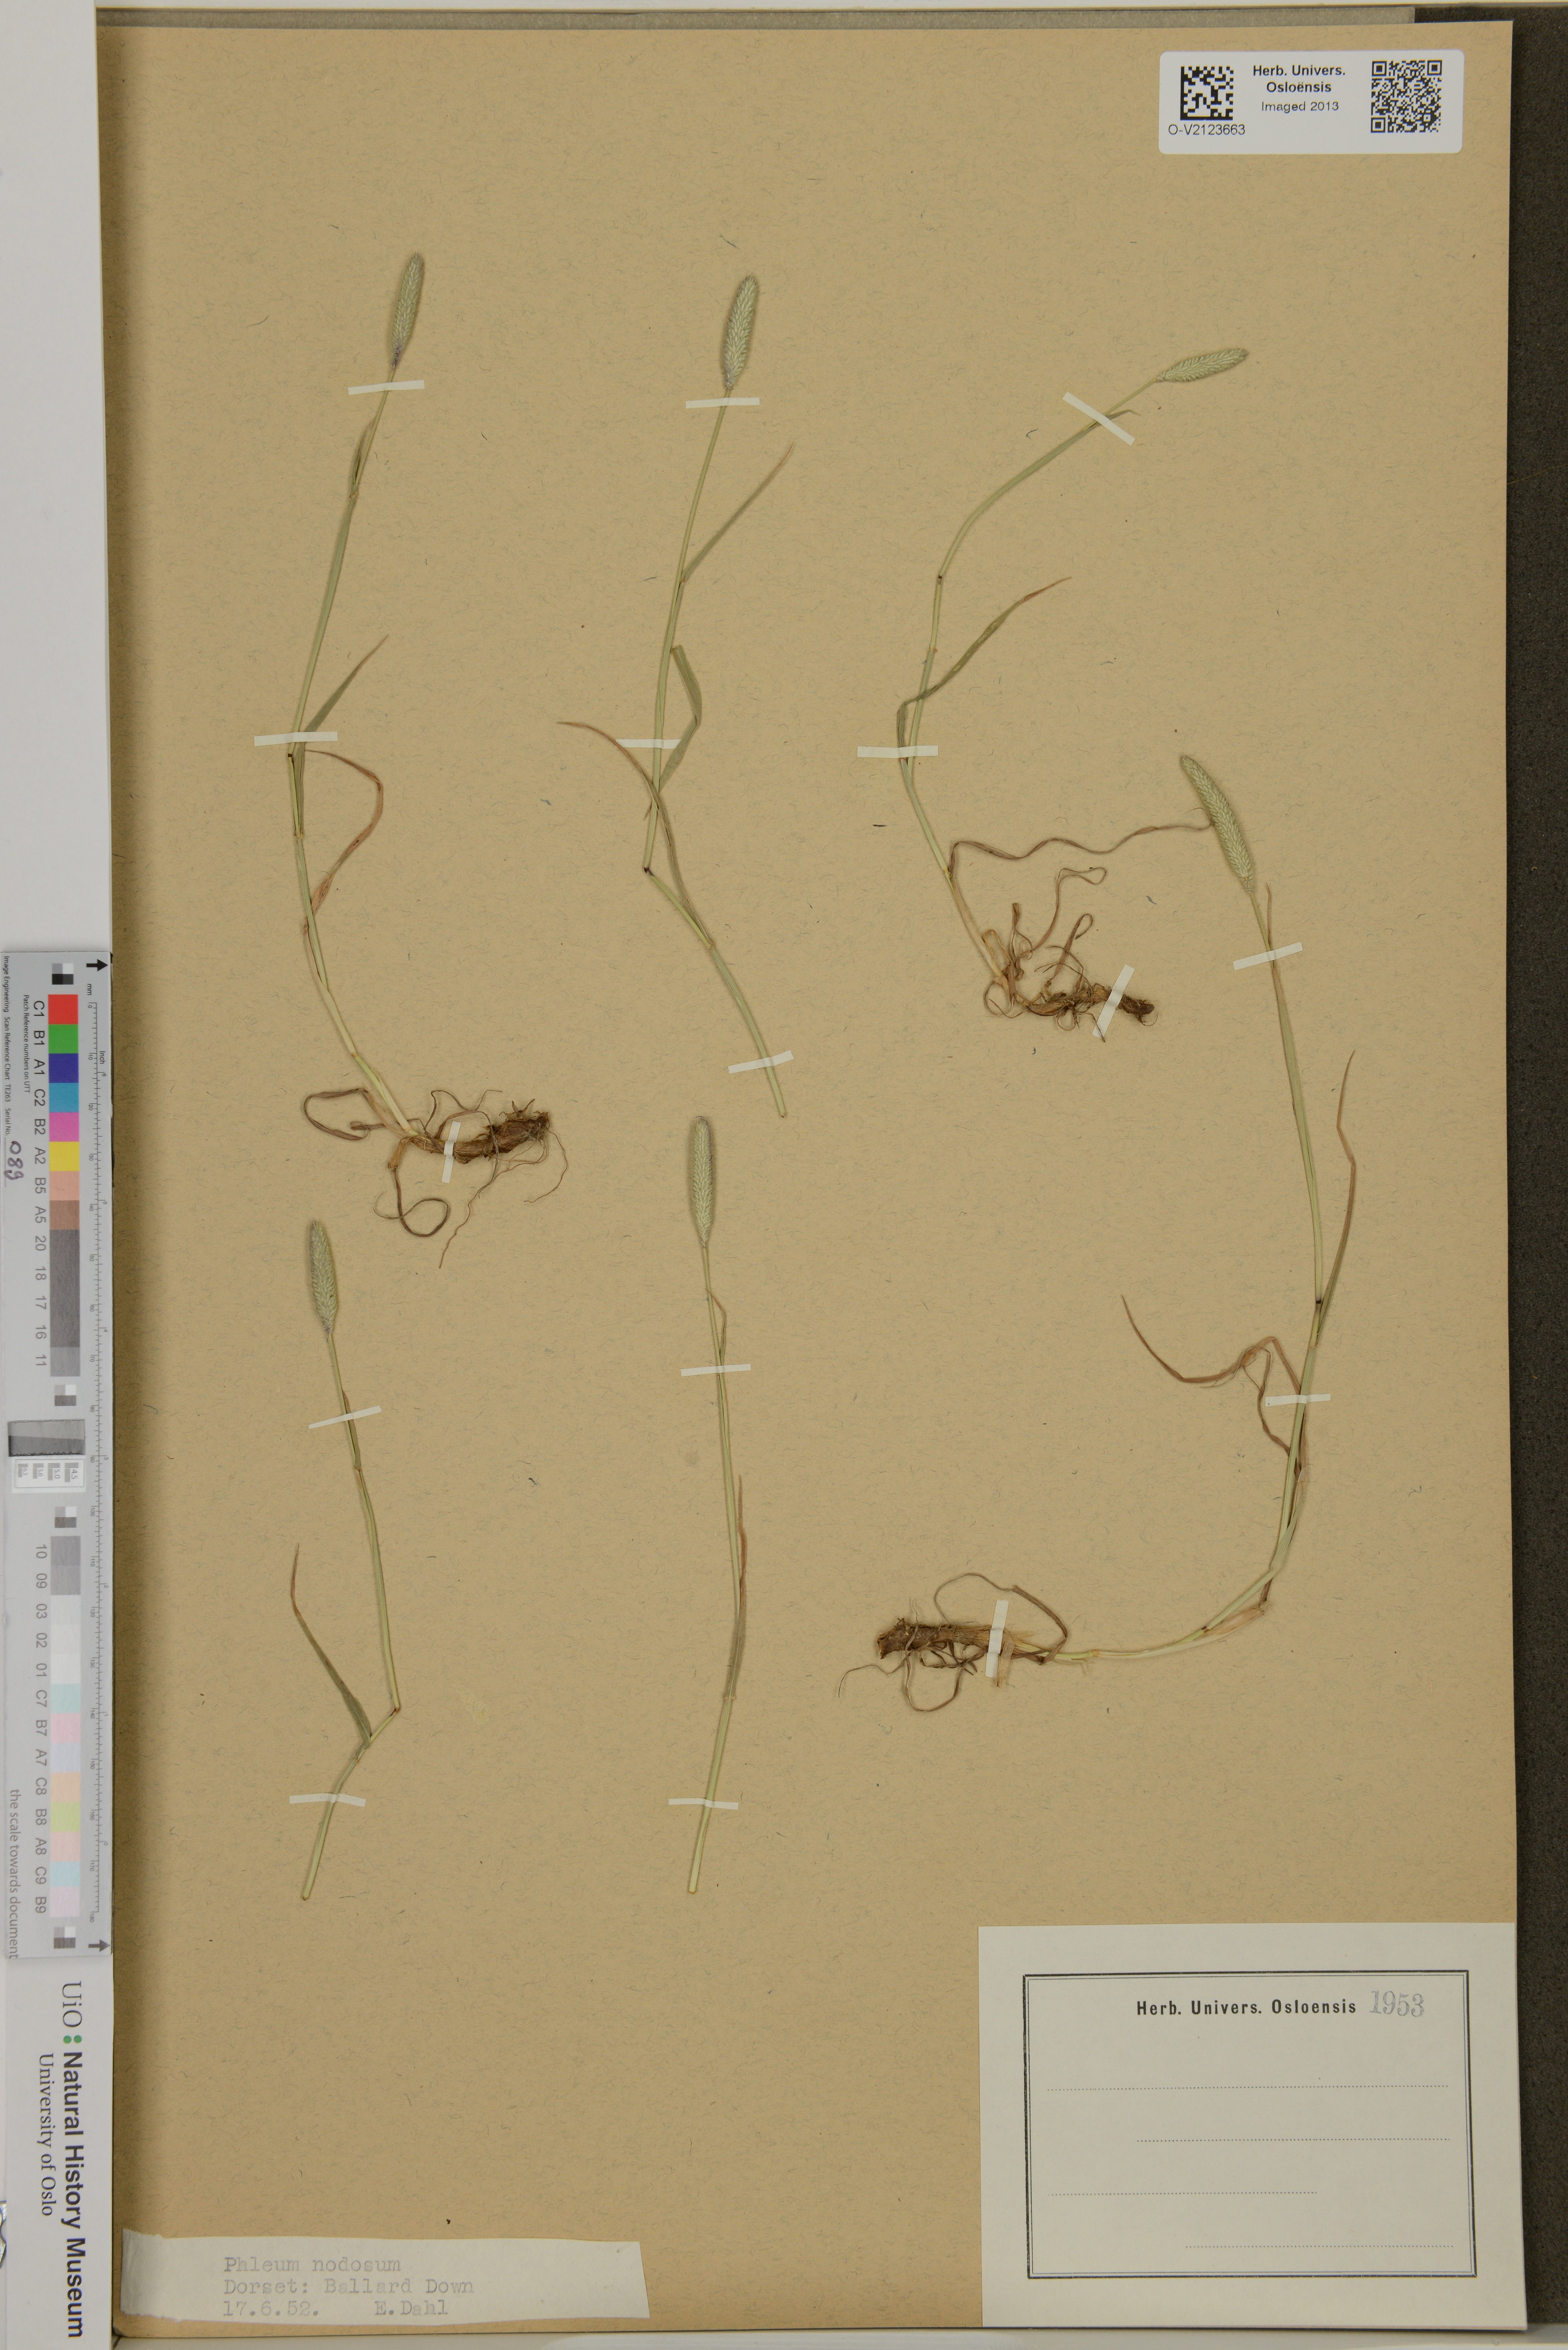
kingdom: Plantae
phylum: Tracheophyta
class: Liliopsida
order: Poales
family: Poaceae
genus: Phleum
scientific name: Phleum bertolonii
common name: Smaller cat's-tail
